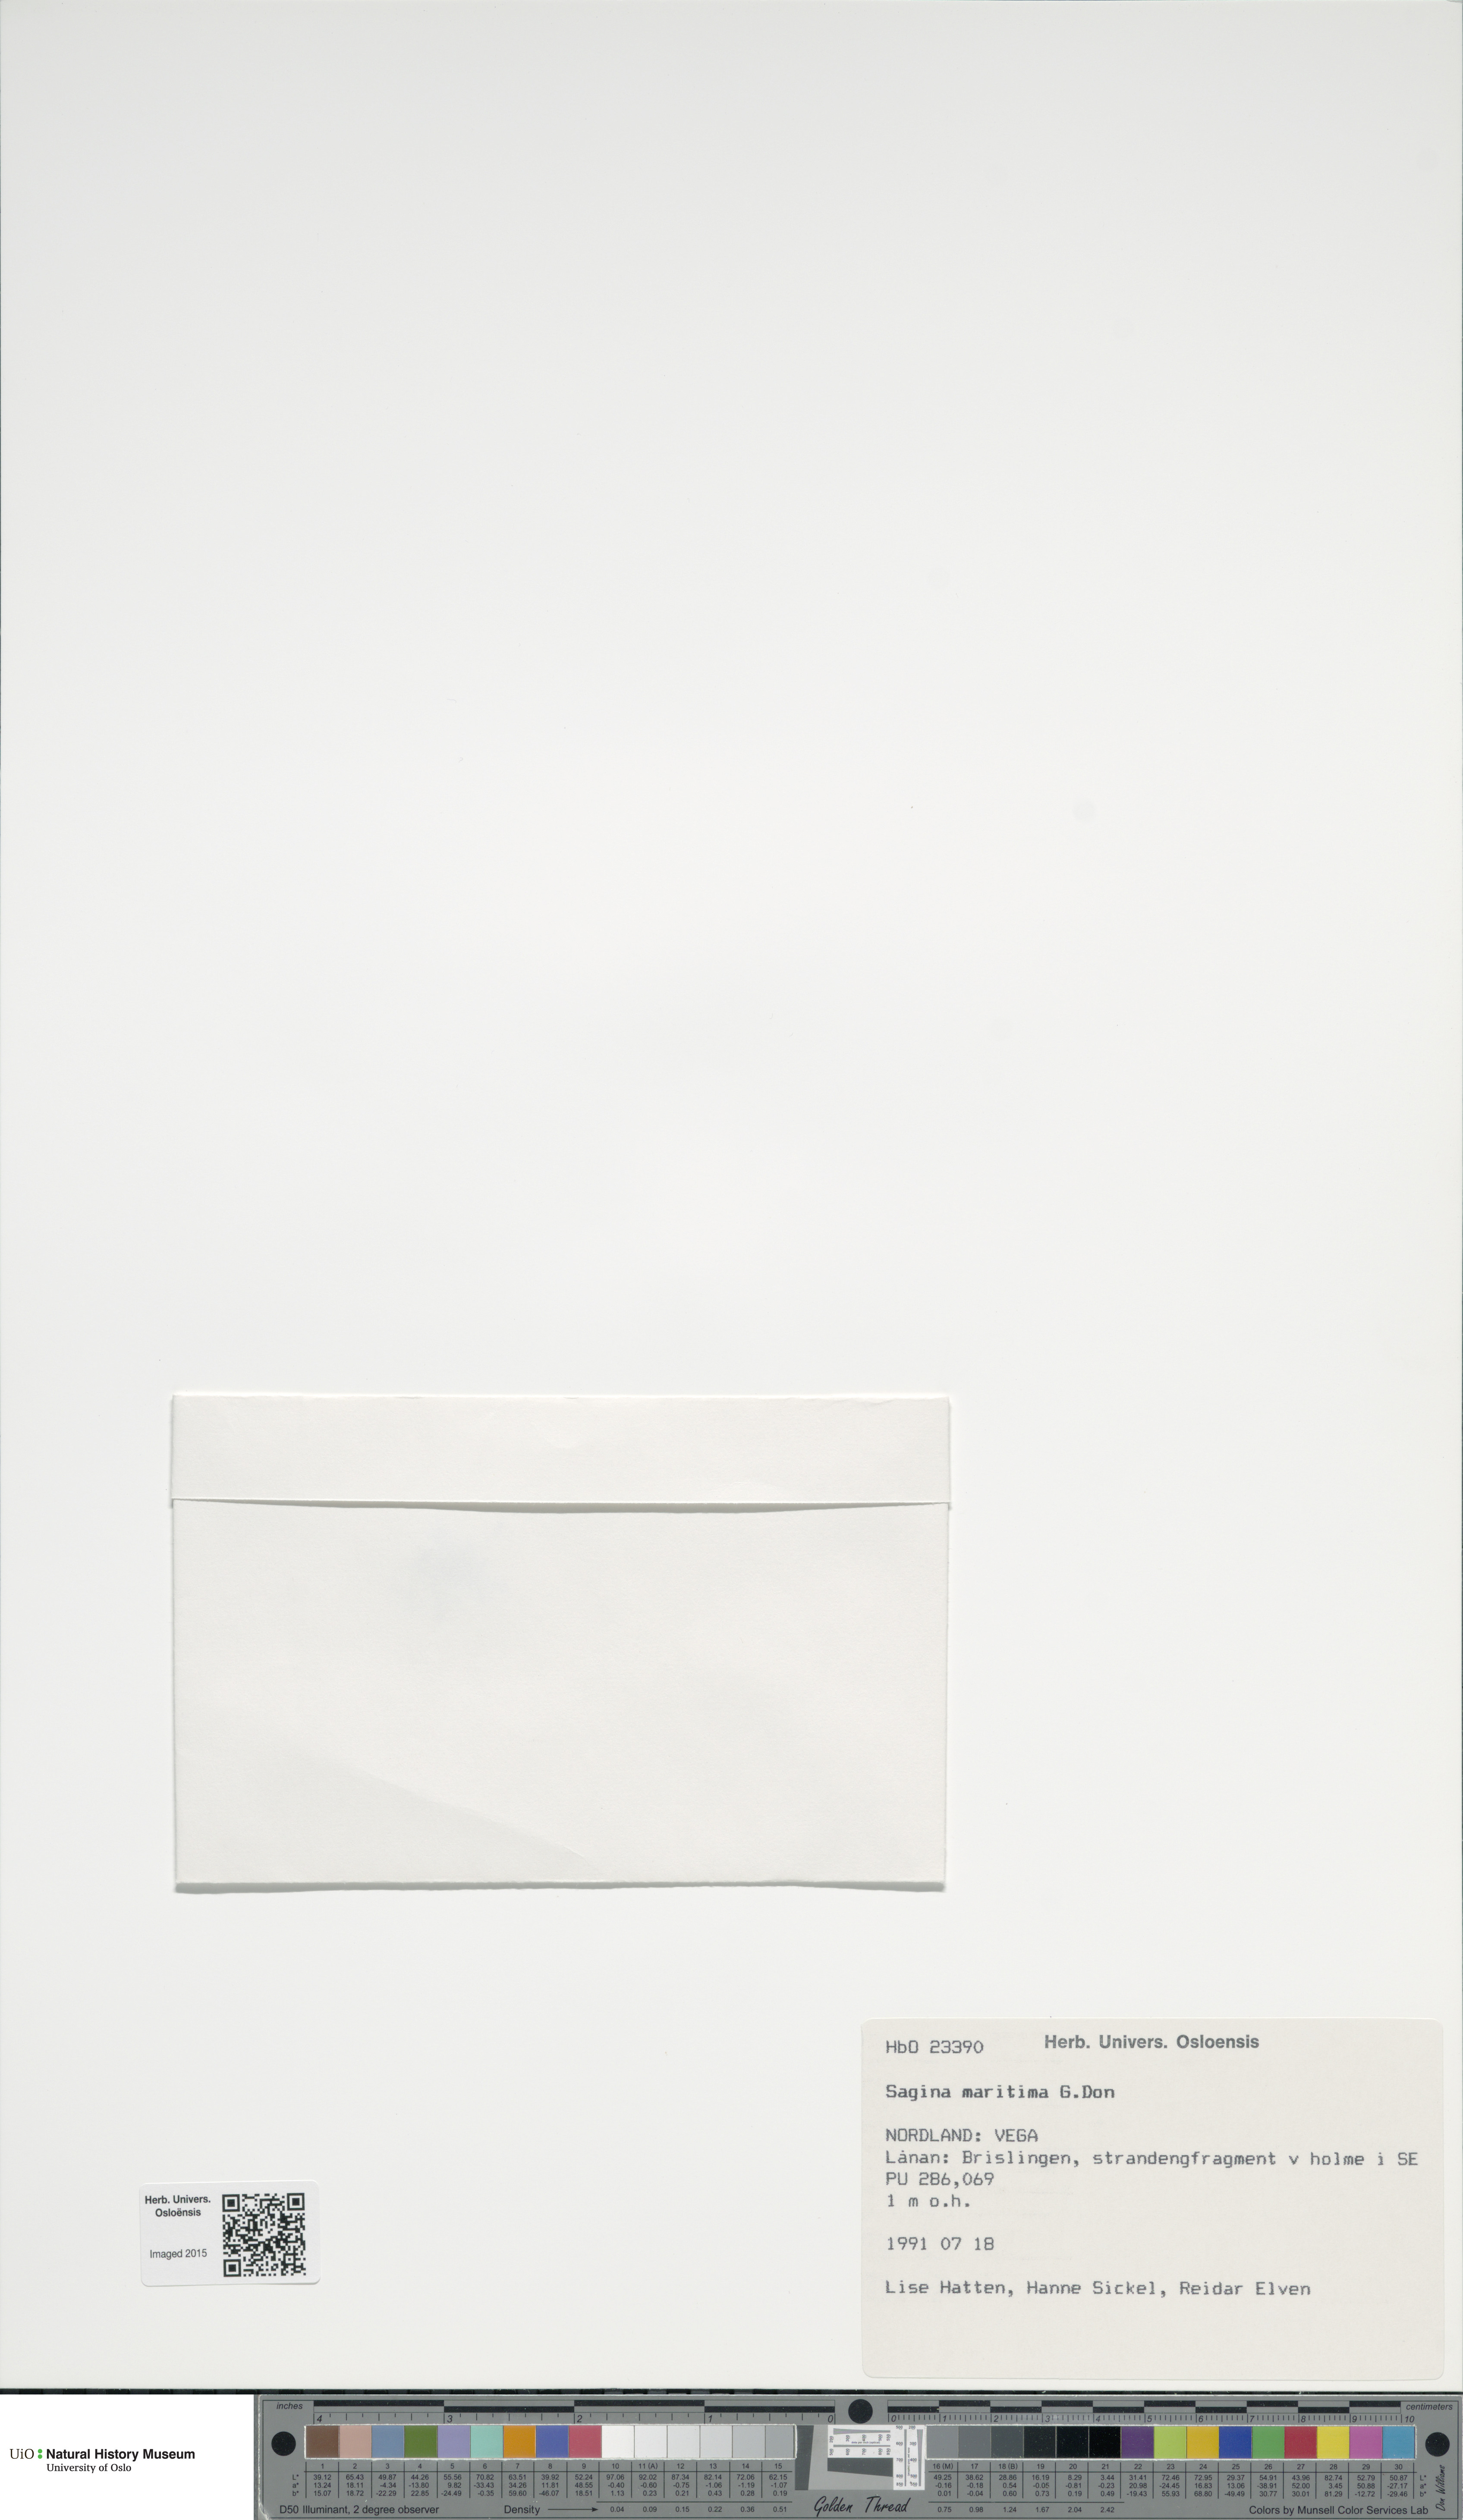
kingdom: Plantae
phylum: Tracheophyta
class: Magnoliopsida
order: Caryophyllales
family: Caryophyllaceae
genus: Sagina
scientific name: Sagina maritima
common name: Sea pearlwort
